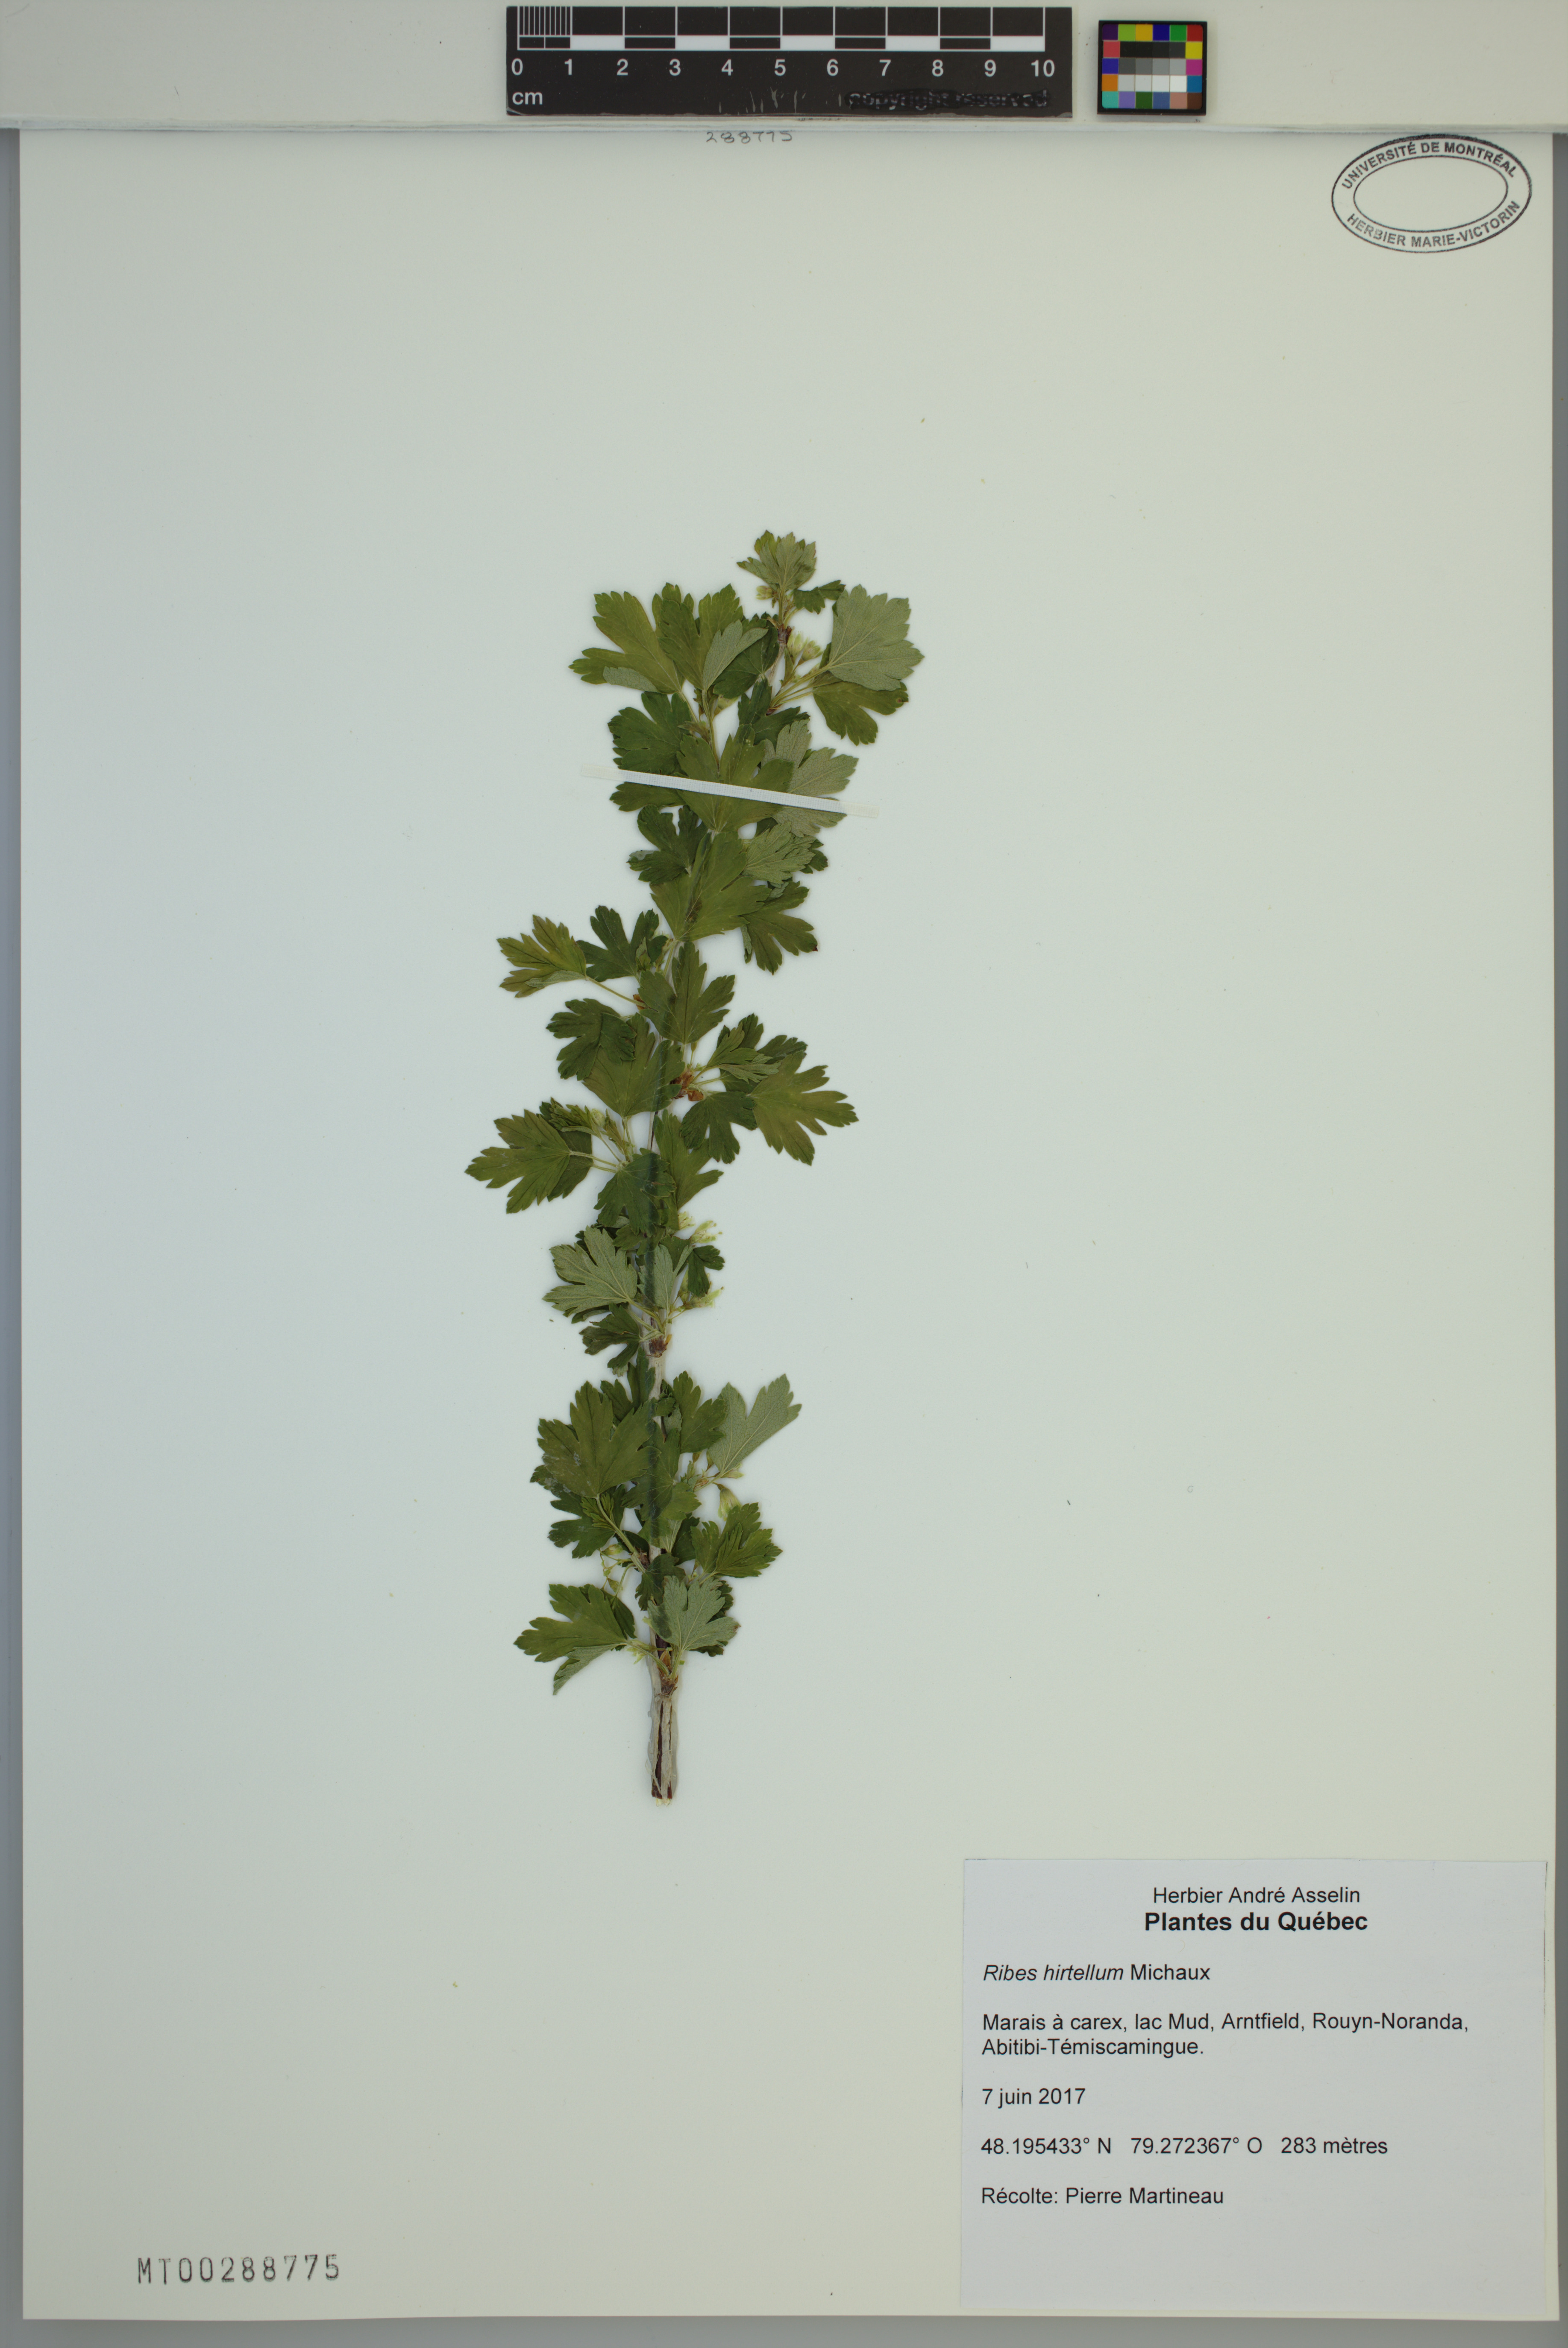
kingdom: Plantae
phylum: Tracheophyta
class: Magnoliopsida
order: Saxifragales
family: Grossulariaceae
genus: Ribes
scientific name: Ribes hirtellum
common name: Hairy gooseberry
